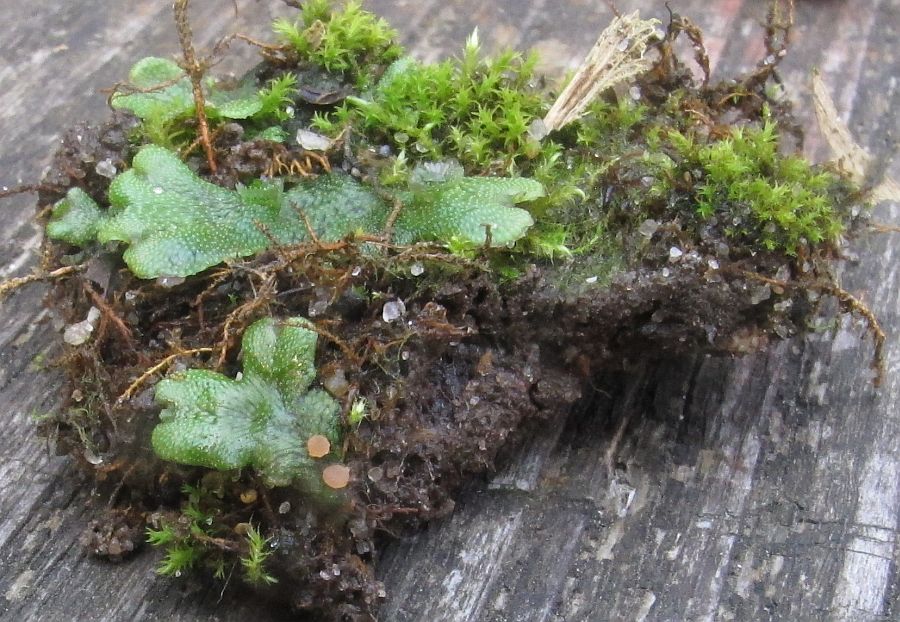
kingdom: Fungi
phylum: Ascomycota
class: Pezizomycetes
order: Pezizales
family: Pyronemataceae
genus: Neottiella
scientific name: Neottiella ithacaensis
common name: lungemos-mosbæger
